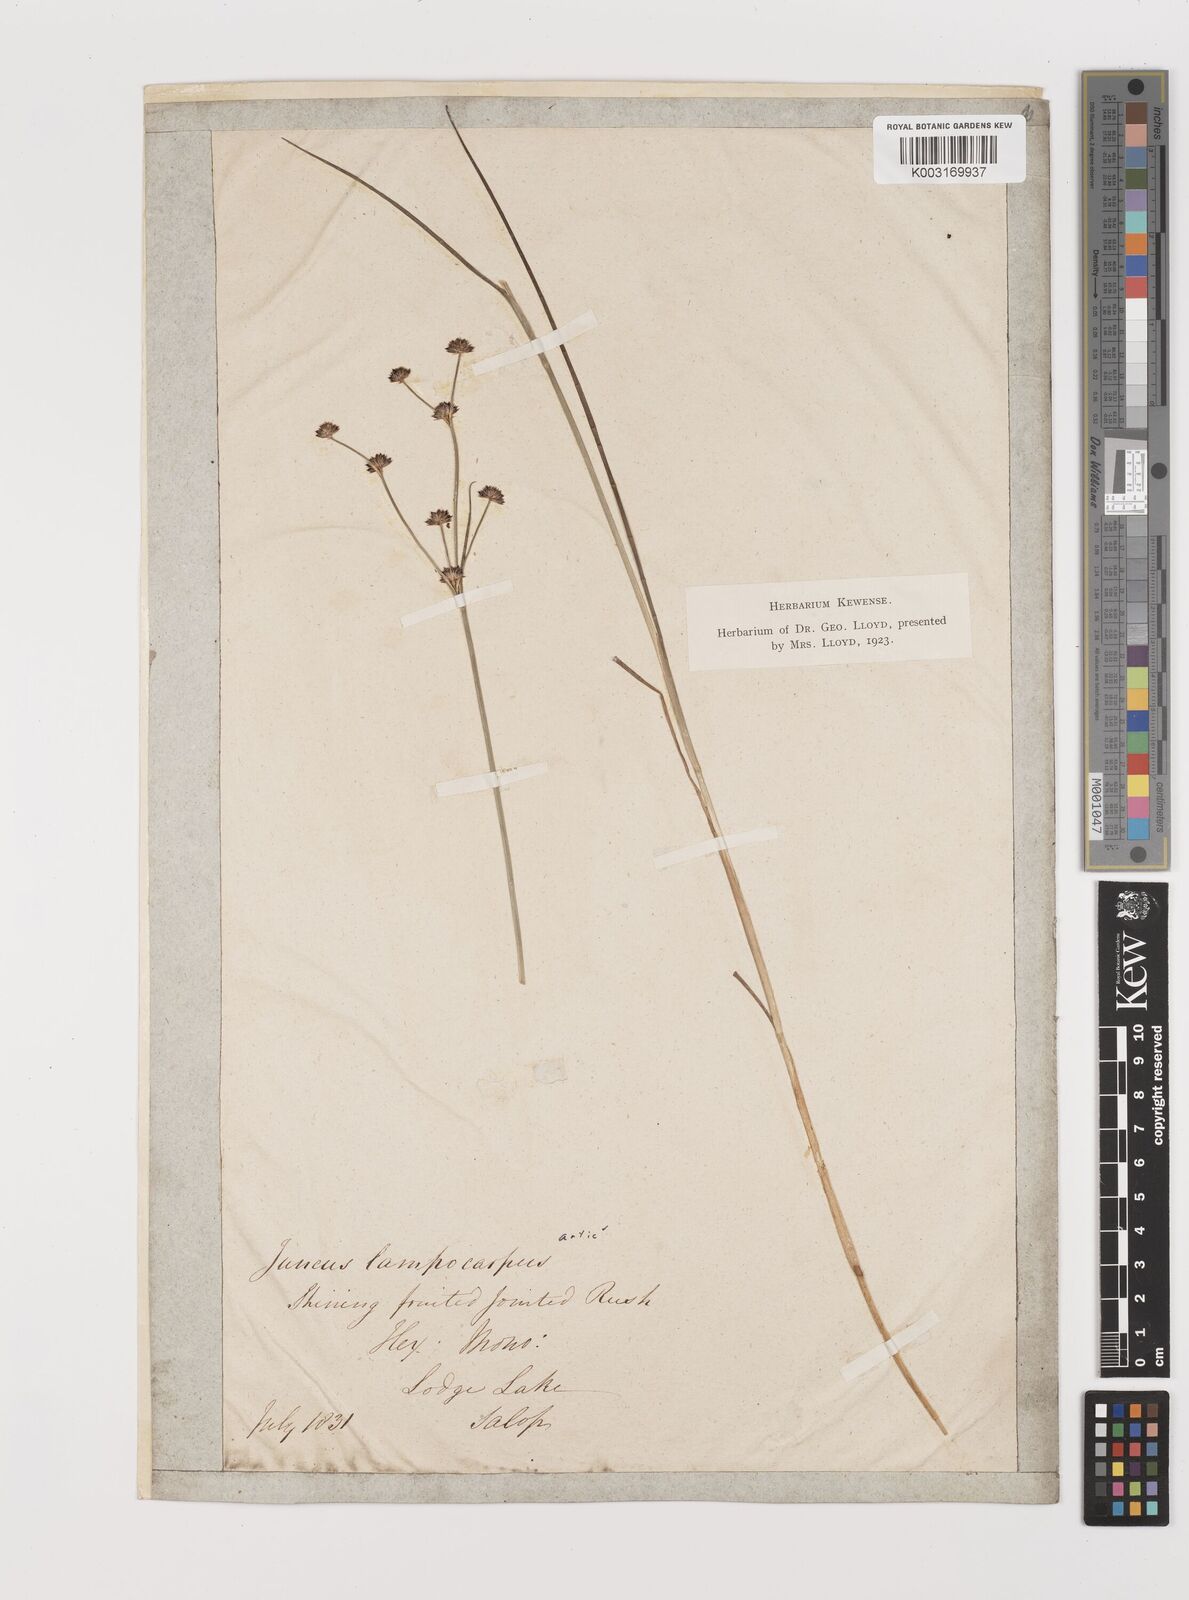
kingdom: Plantae
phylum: Tracheophyta
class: Liliopsida
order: Poales
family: Juncaceae
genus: Juncus
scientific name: Juncus articulatus
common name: Jointed rush
